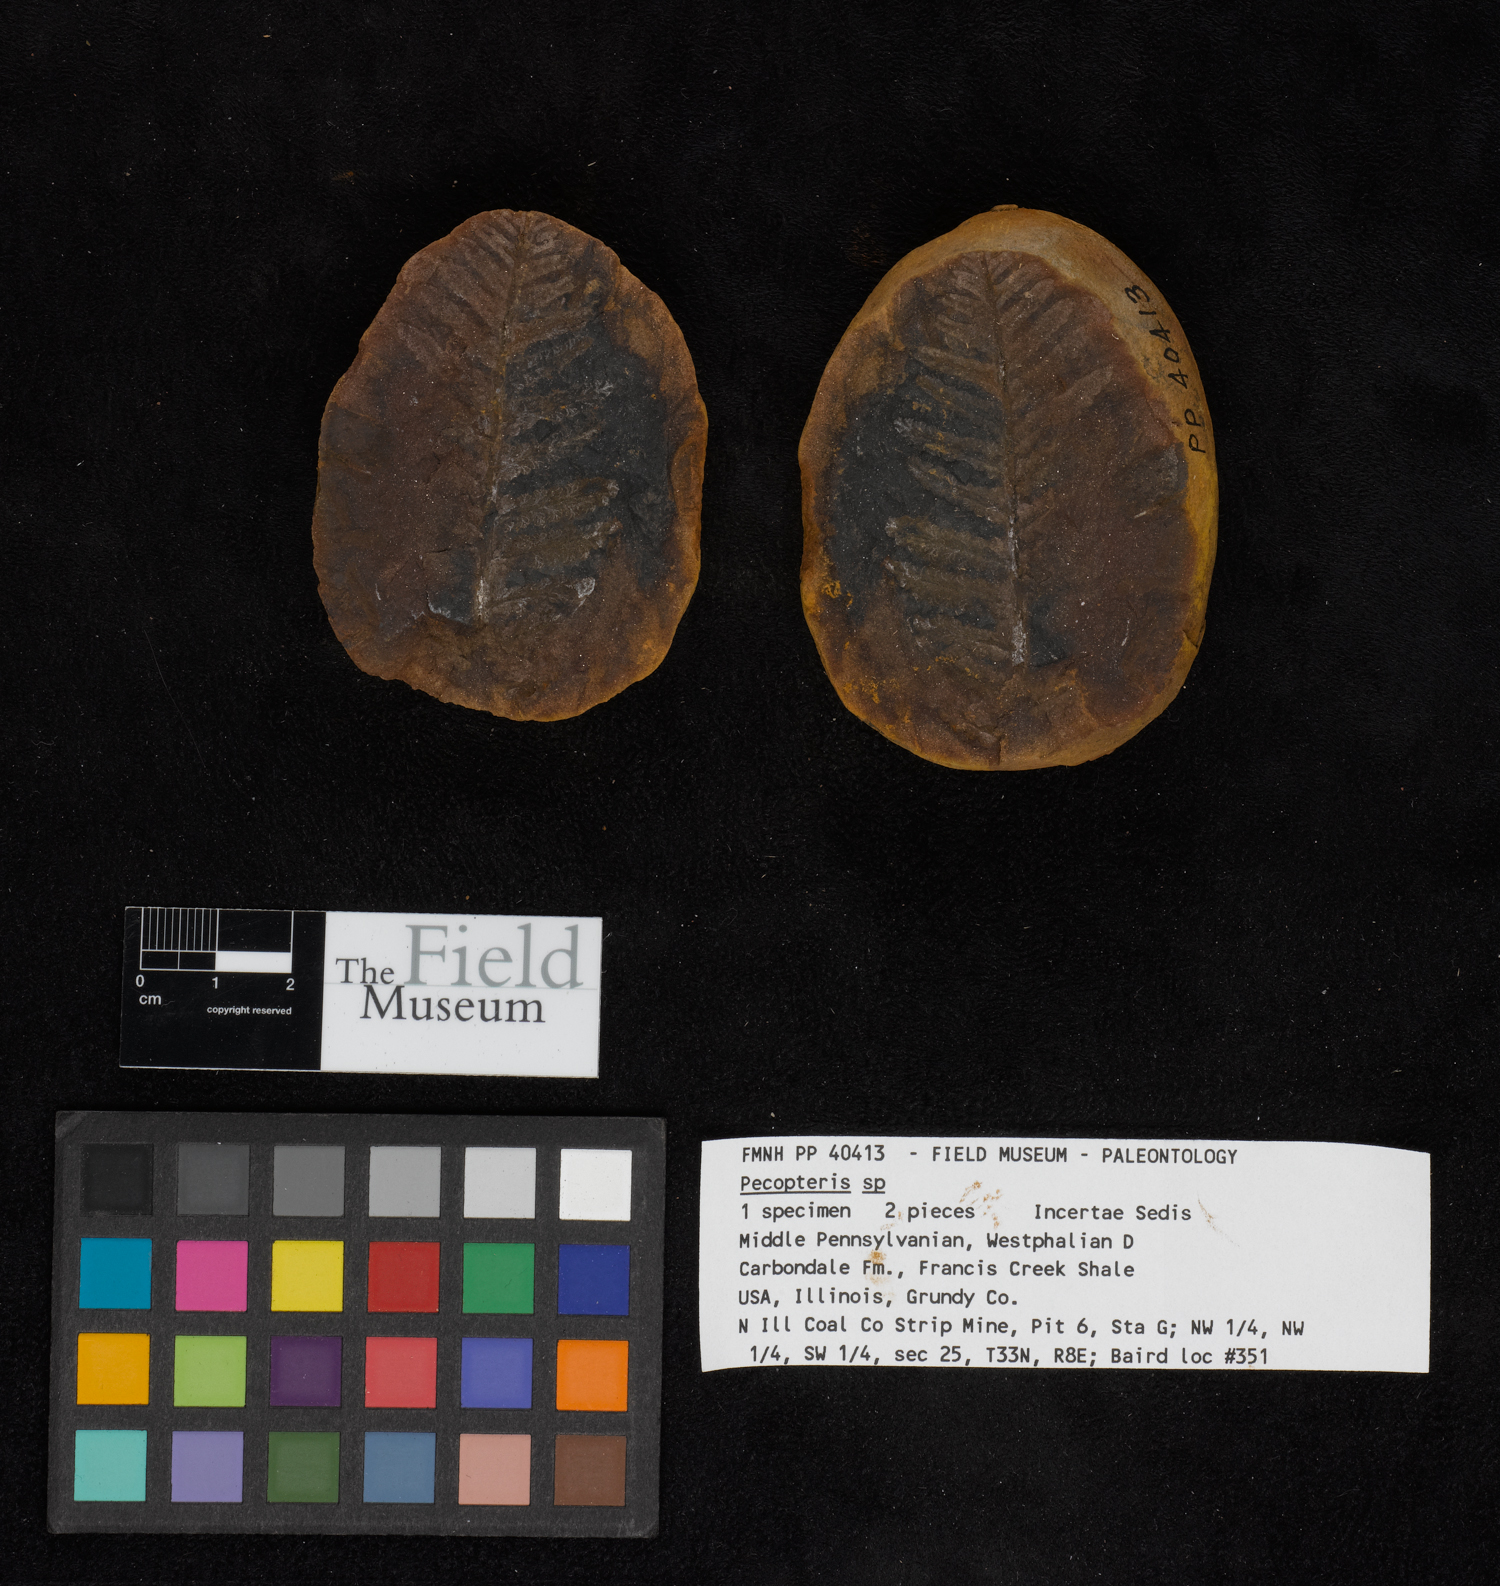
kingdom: Plantae
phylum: Tracheophyta
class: Polypodiopsida
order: Marattiales
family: Asterothecaceae
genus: Pecopteris
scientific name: Pecopteris
